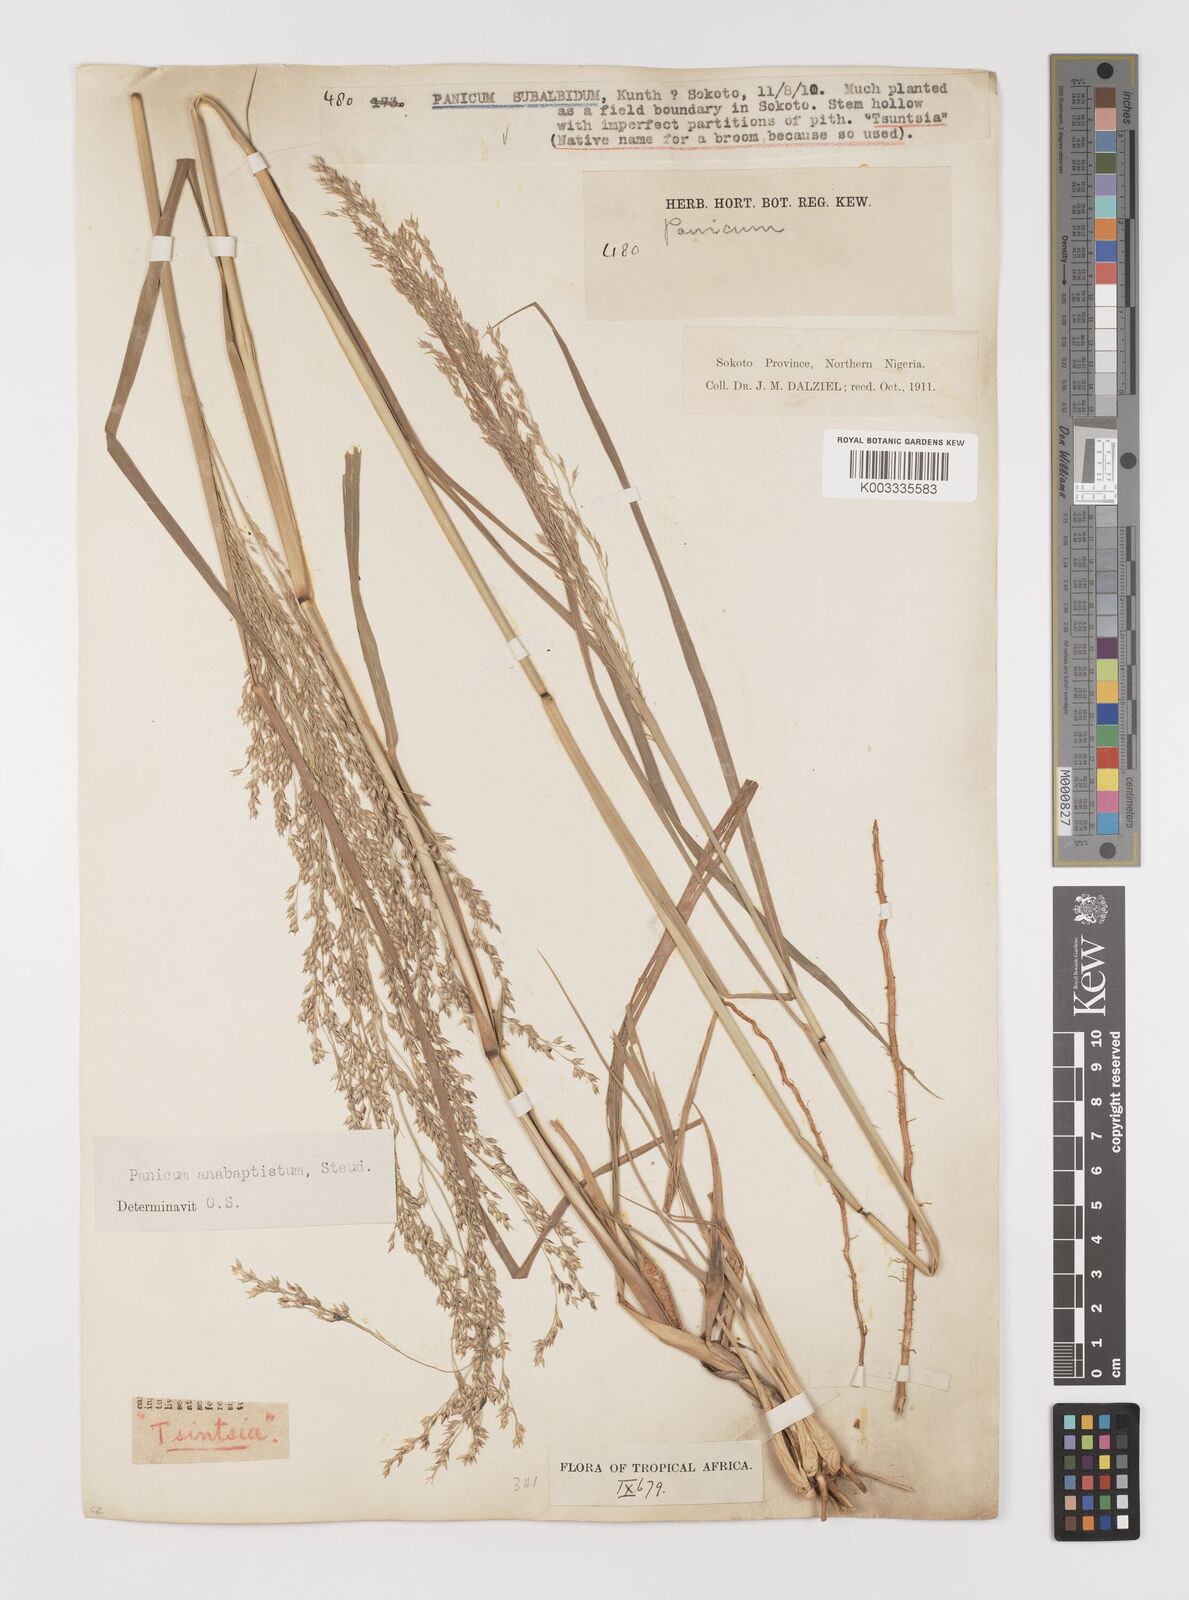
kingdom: Plantae
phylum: Tracheophyta
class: Liliopsida
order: Poales
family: Poaceae
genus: Panicum
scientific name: Panicum phragmitoides
